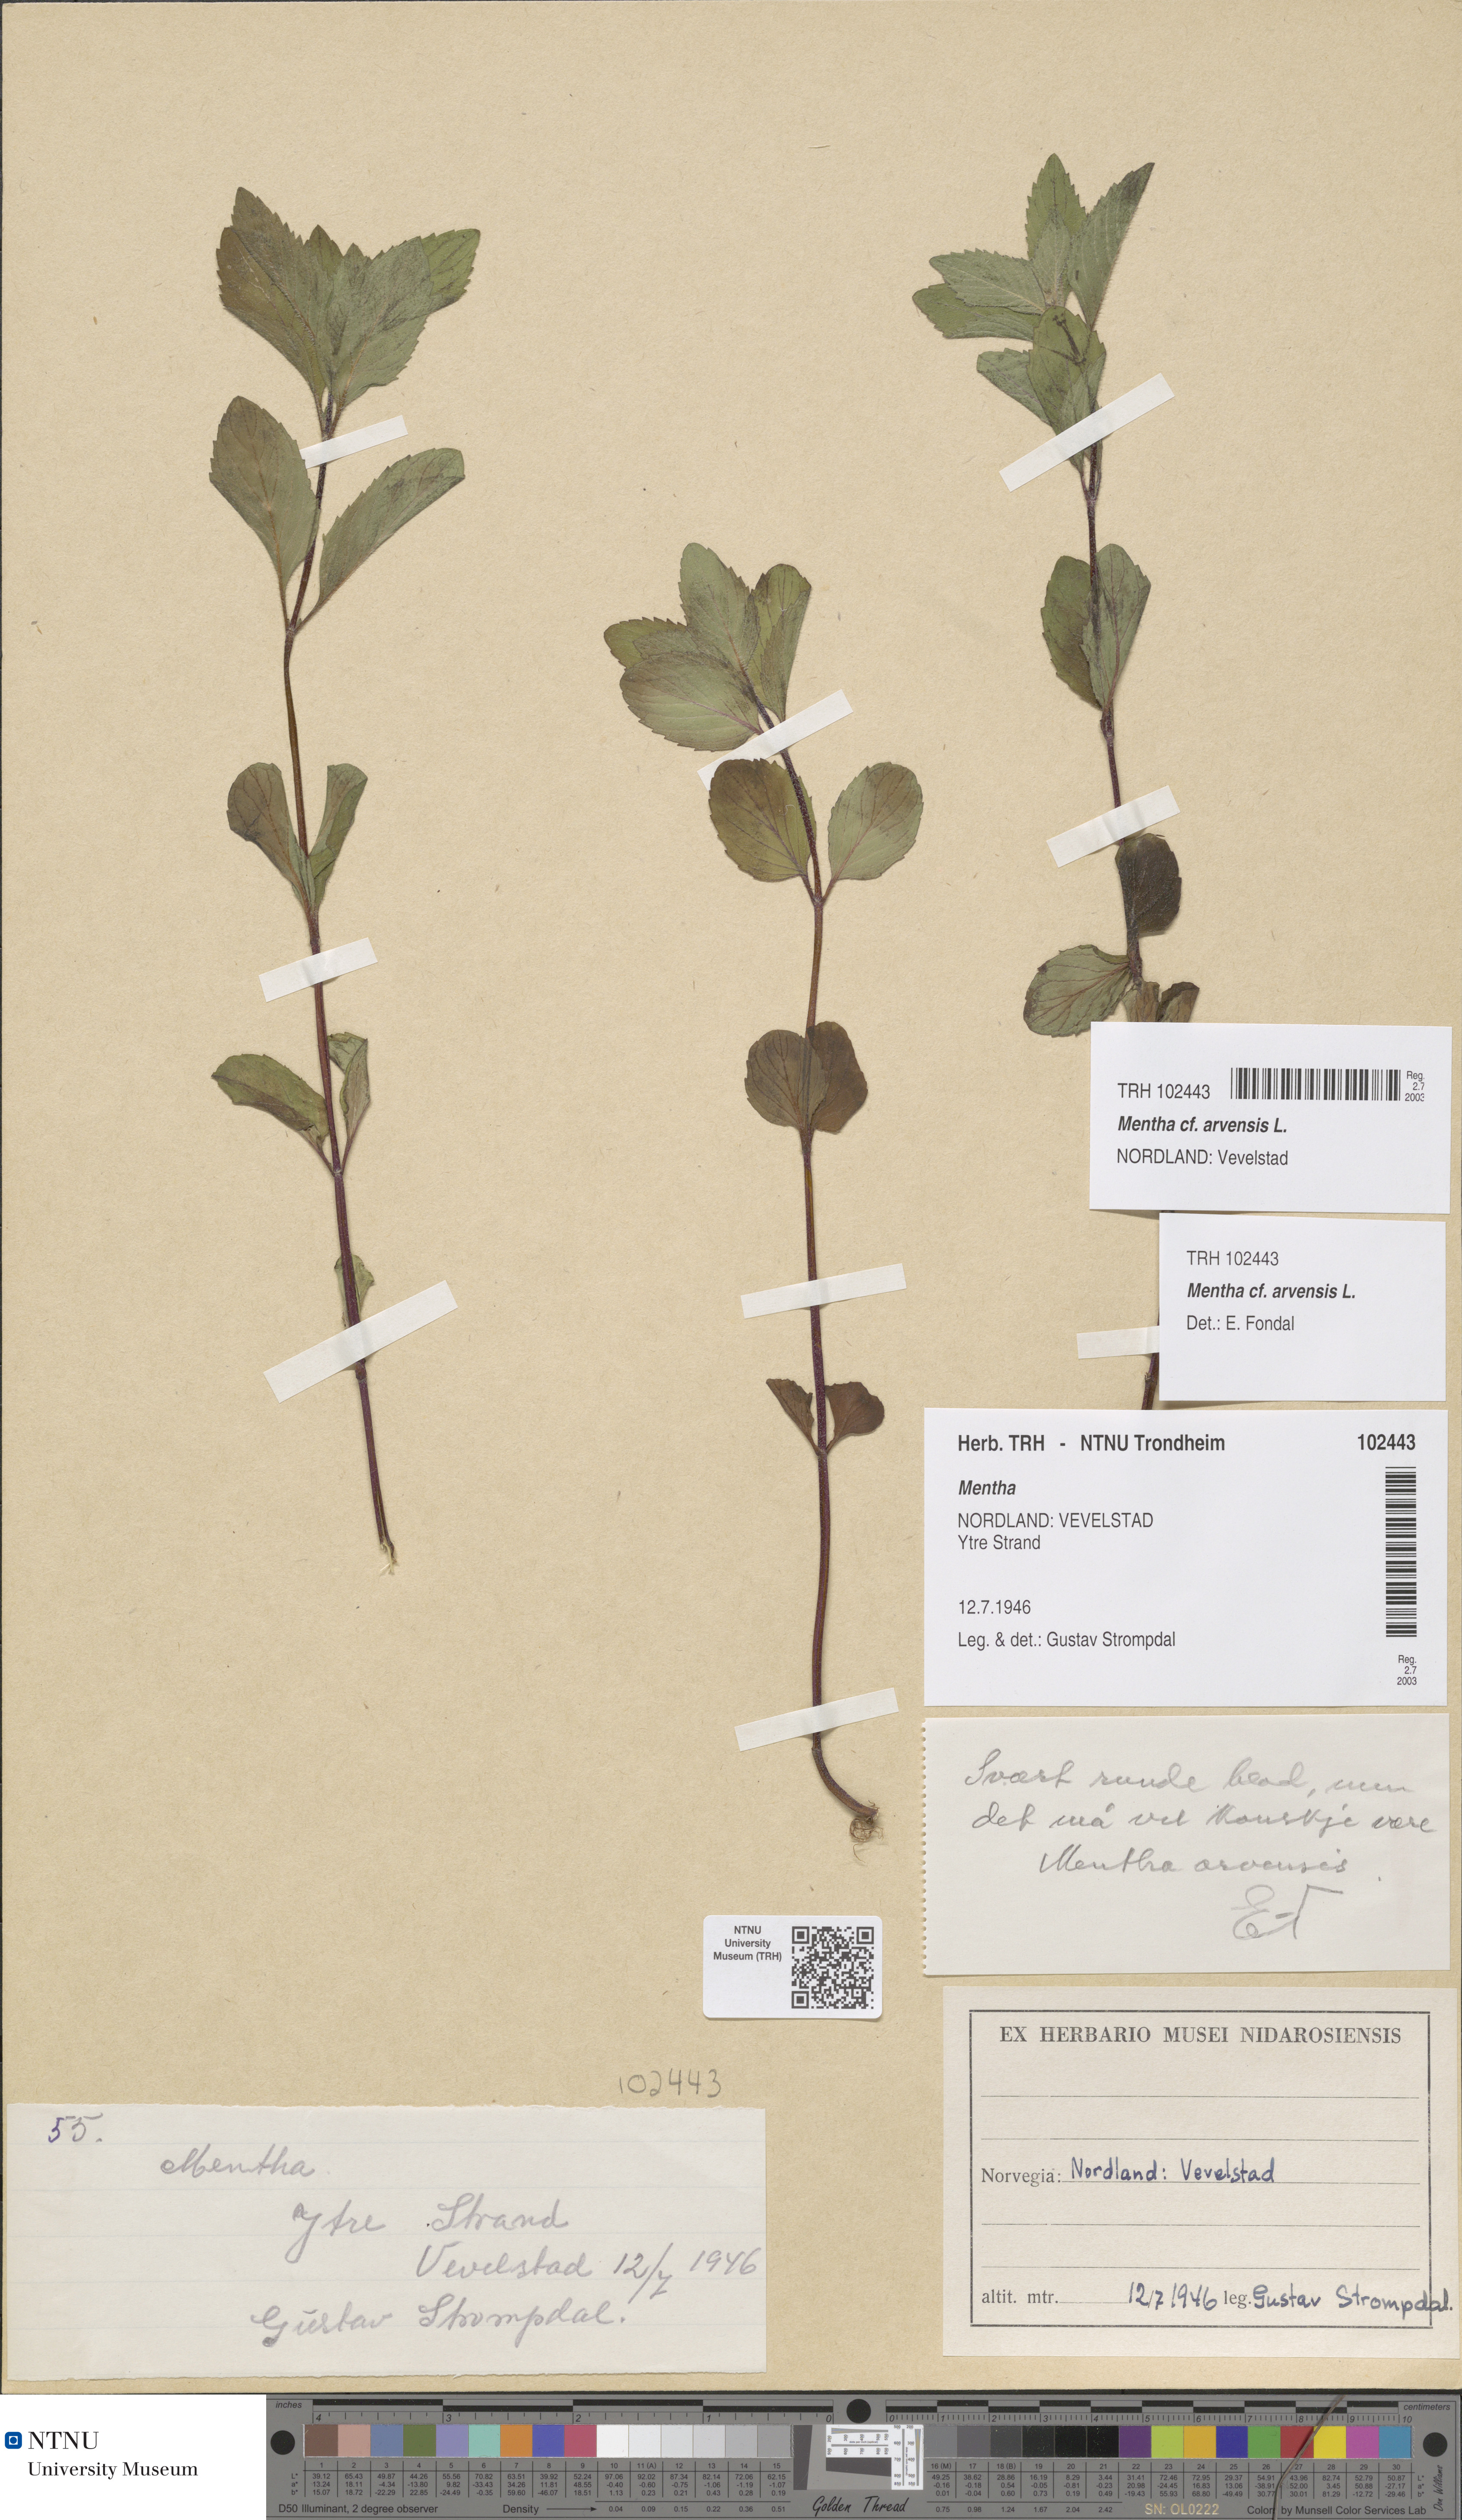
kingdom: Plantae
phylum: Tracheophyta
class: Magnoliopsida
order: Lamiales
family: Lamiaceae
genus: Mentha
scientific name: Mentha arvensis
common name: Corn mint
